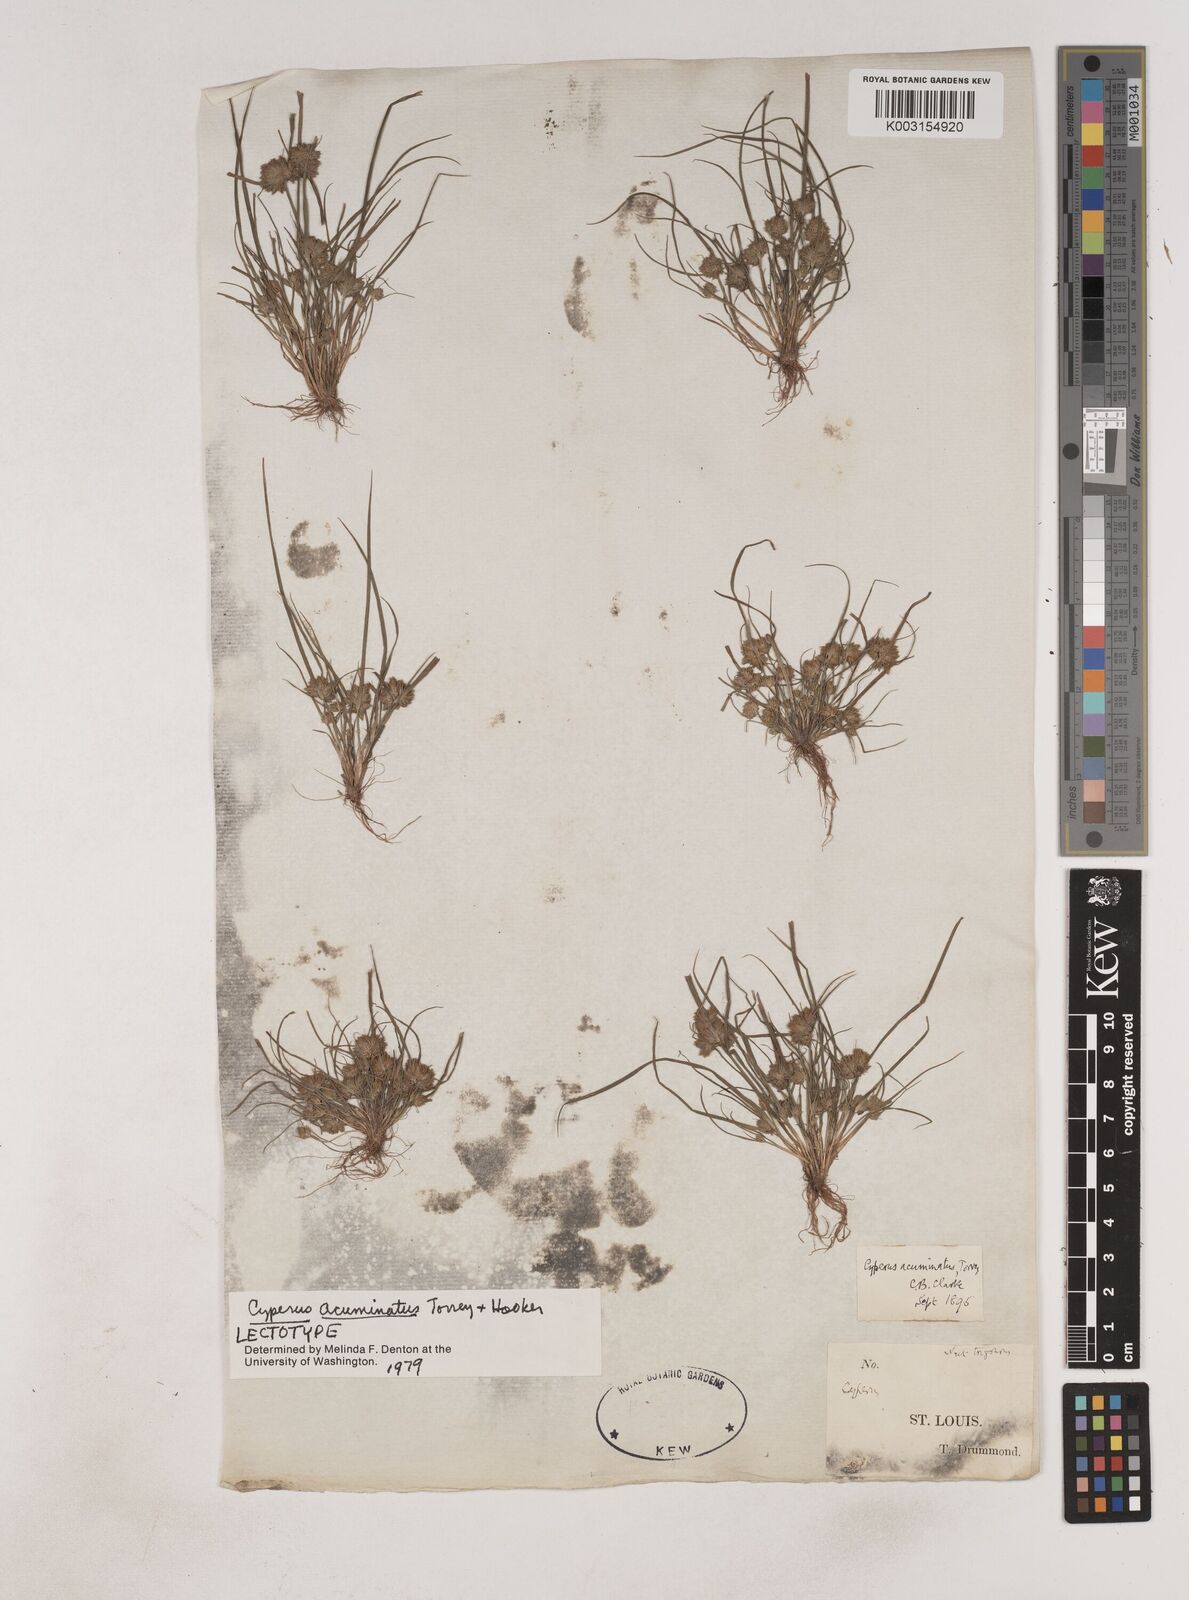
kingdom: Plantae
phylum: Tracheophyta
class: Liliopsida
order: Poales
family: Cyperaceae
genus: Cyperus
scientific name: Cyperus acuminatus
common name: Short-pointed cyperus
